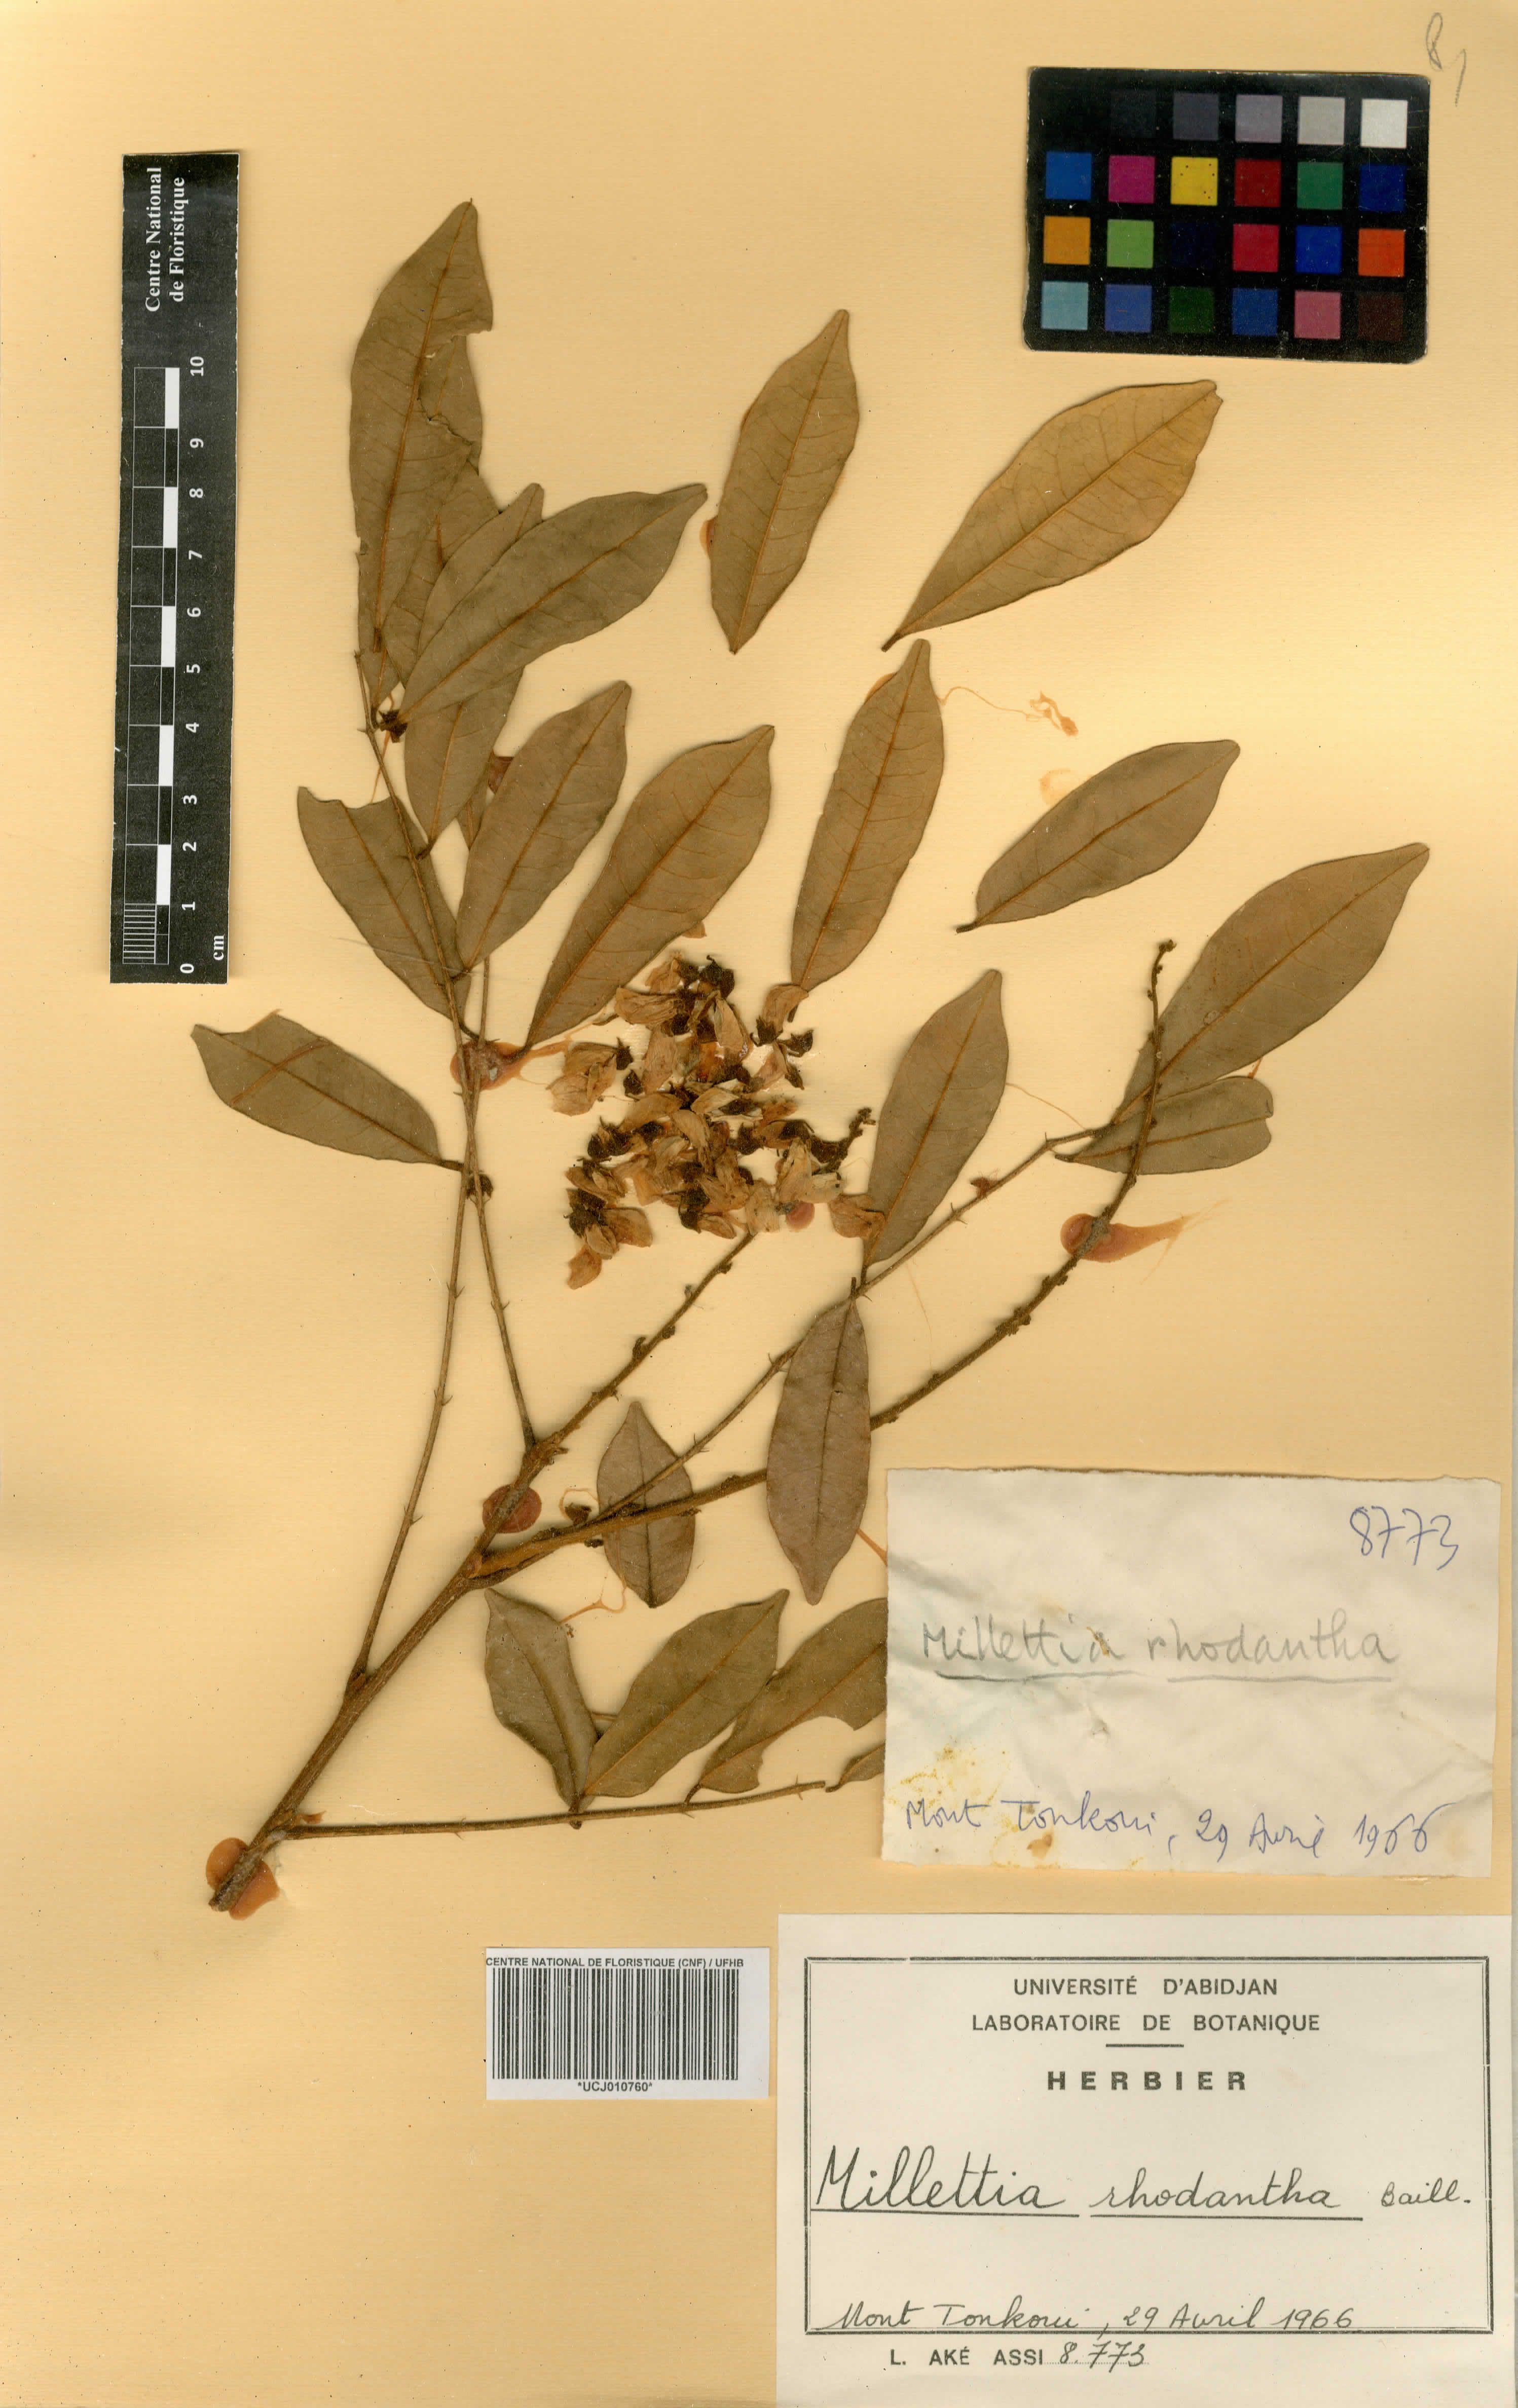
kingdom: Plantae
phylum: Tracheophyta
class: Magnoliopsida
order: Fabales
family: Fabaceae
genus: Millettia
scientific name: Millettia rhodantha
